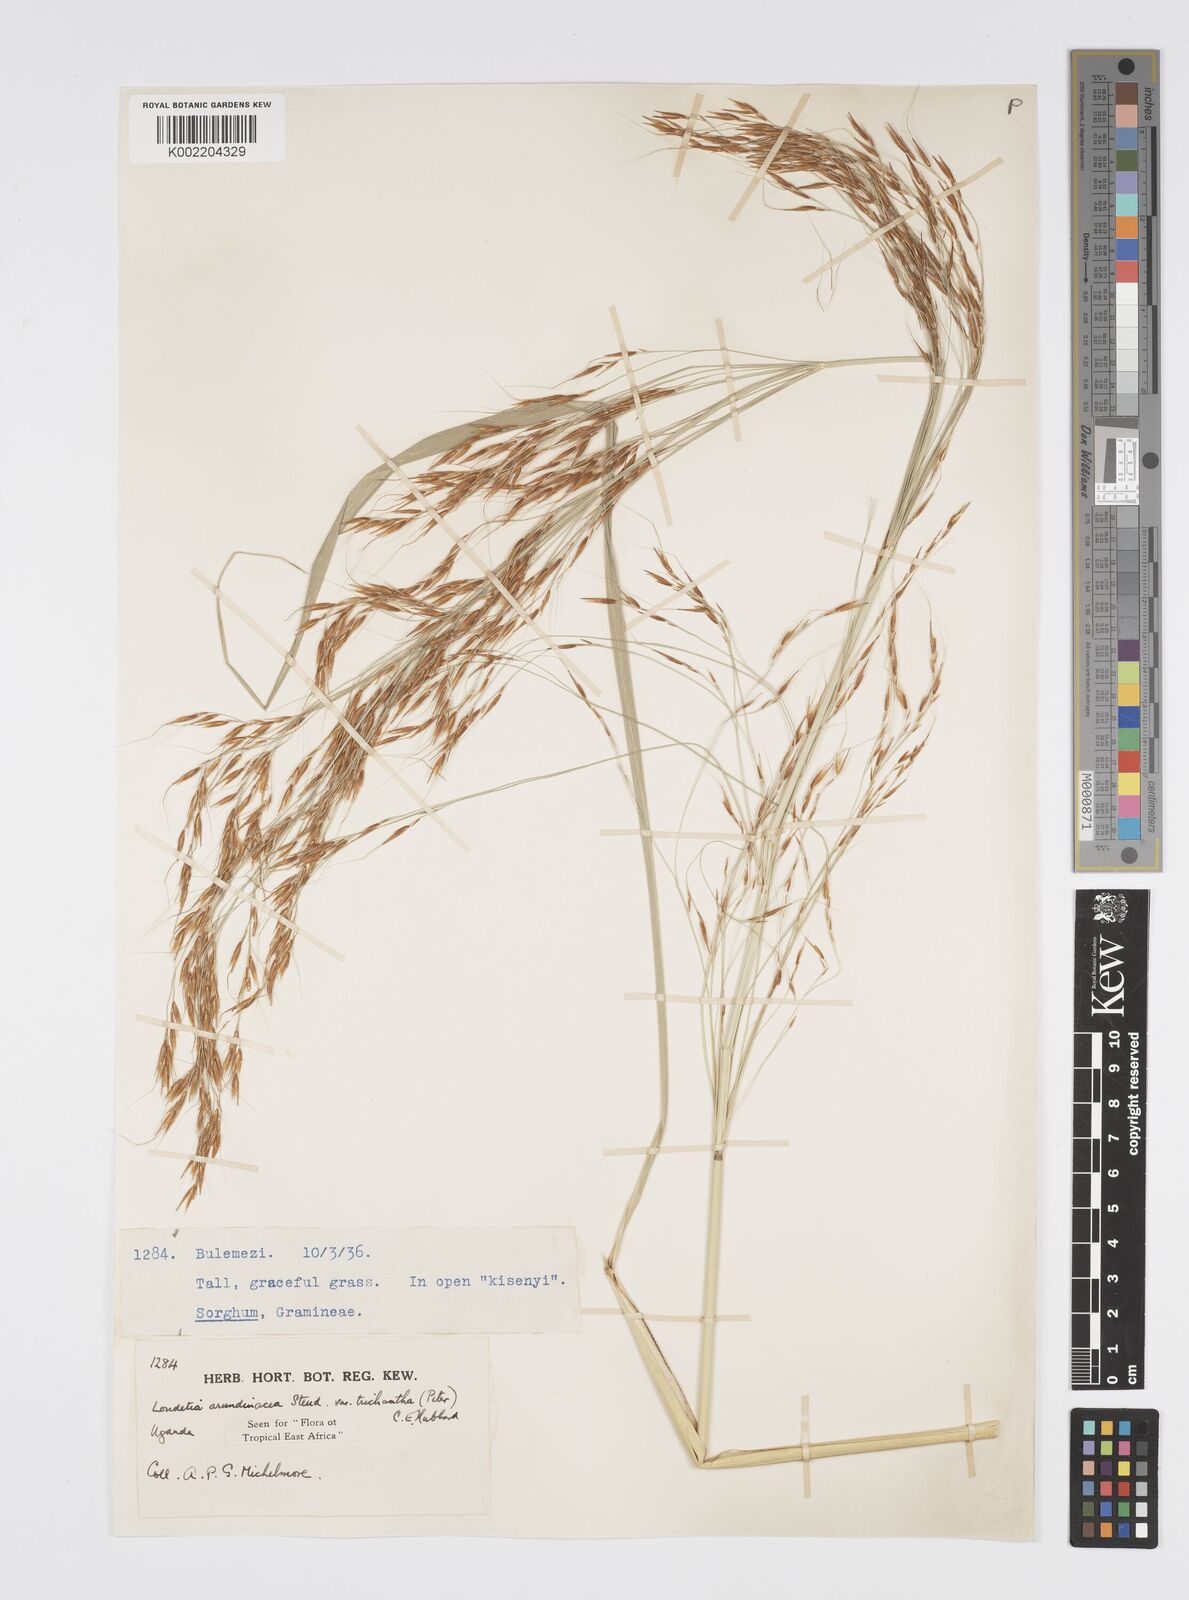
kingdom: Plantae
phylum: Tracheophyta
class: Liliopsida
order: Poales
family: Poaceae
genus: Loudetia
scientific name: Loudetia arundinacea
